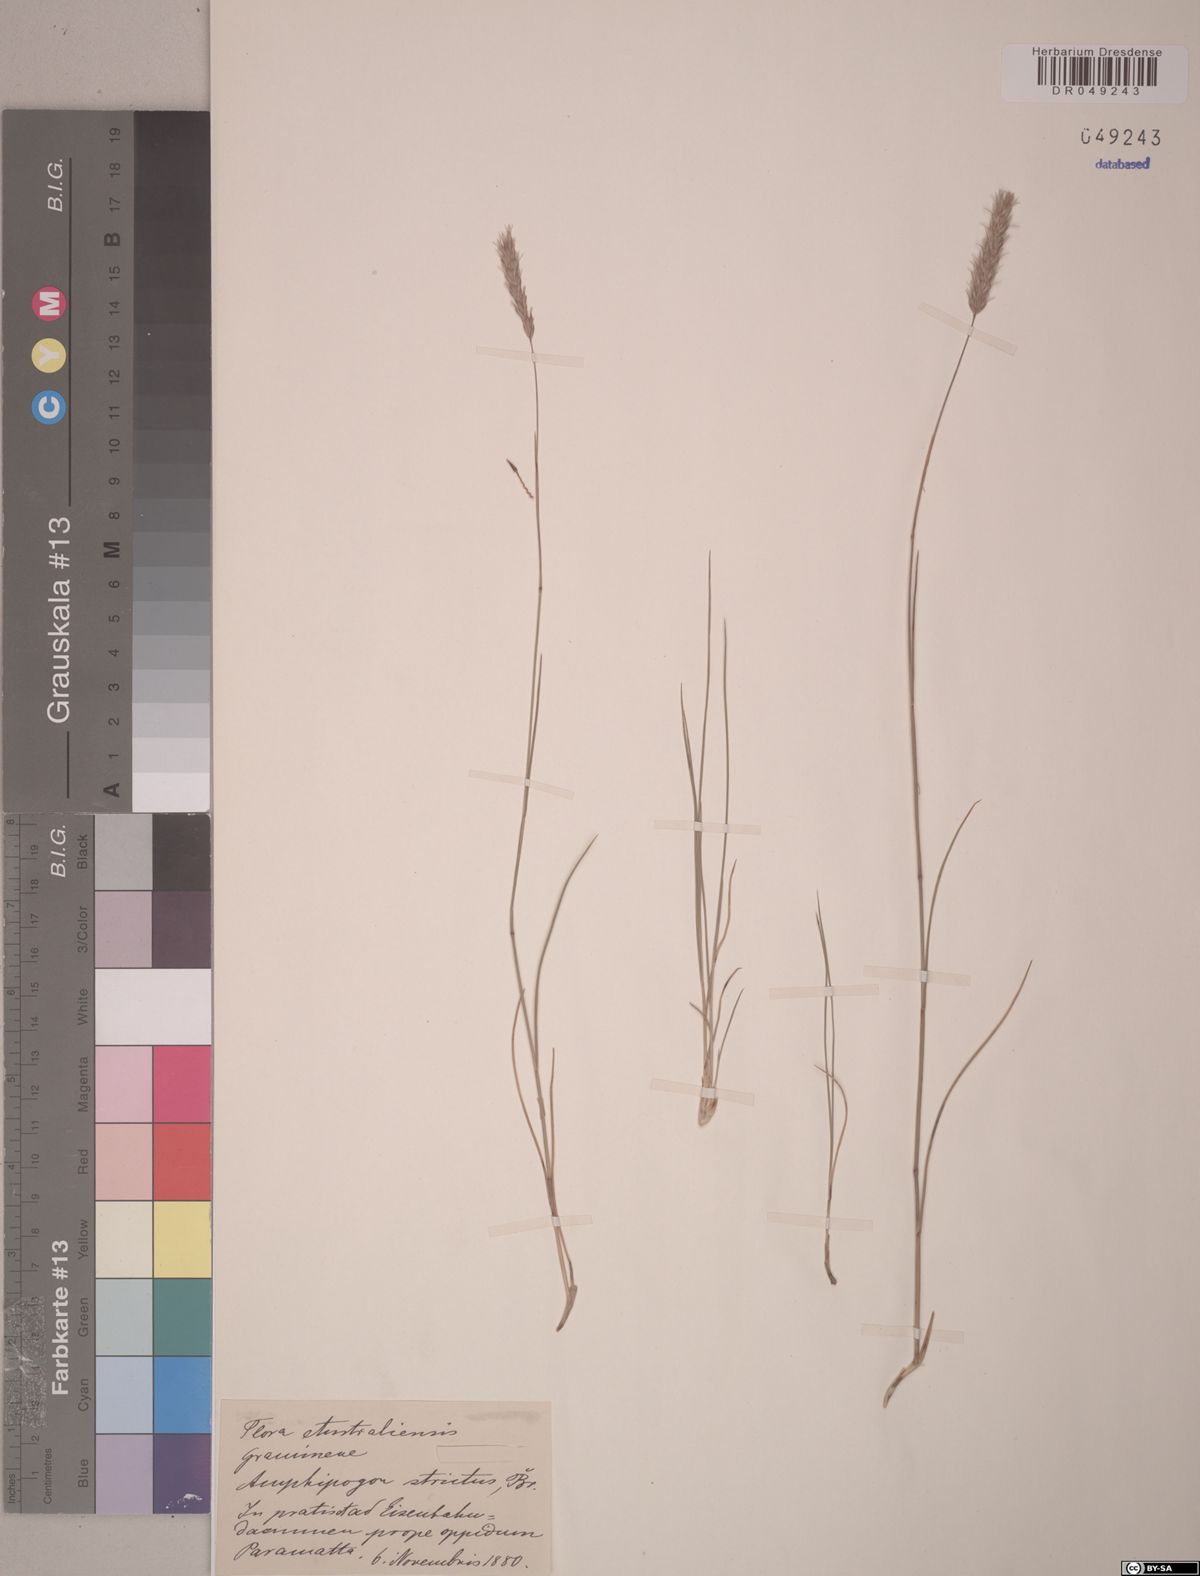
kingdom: Plantae
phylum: Tracheophyta
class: Liliopsida
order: Poales
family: Poaceae
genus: Amphipogon
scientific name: Amphipogon strictus
